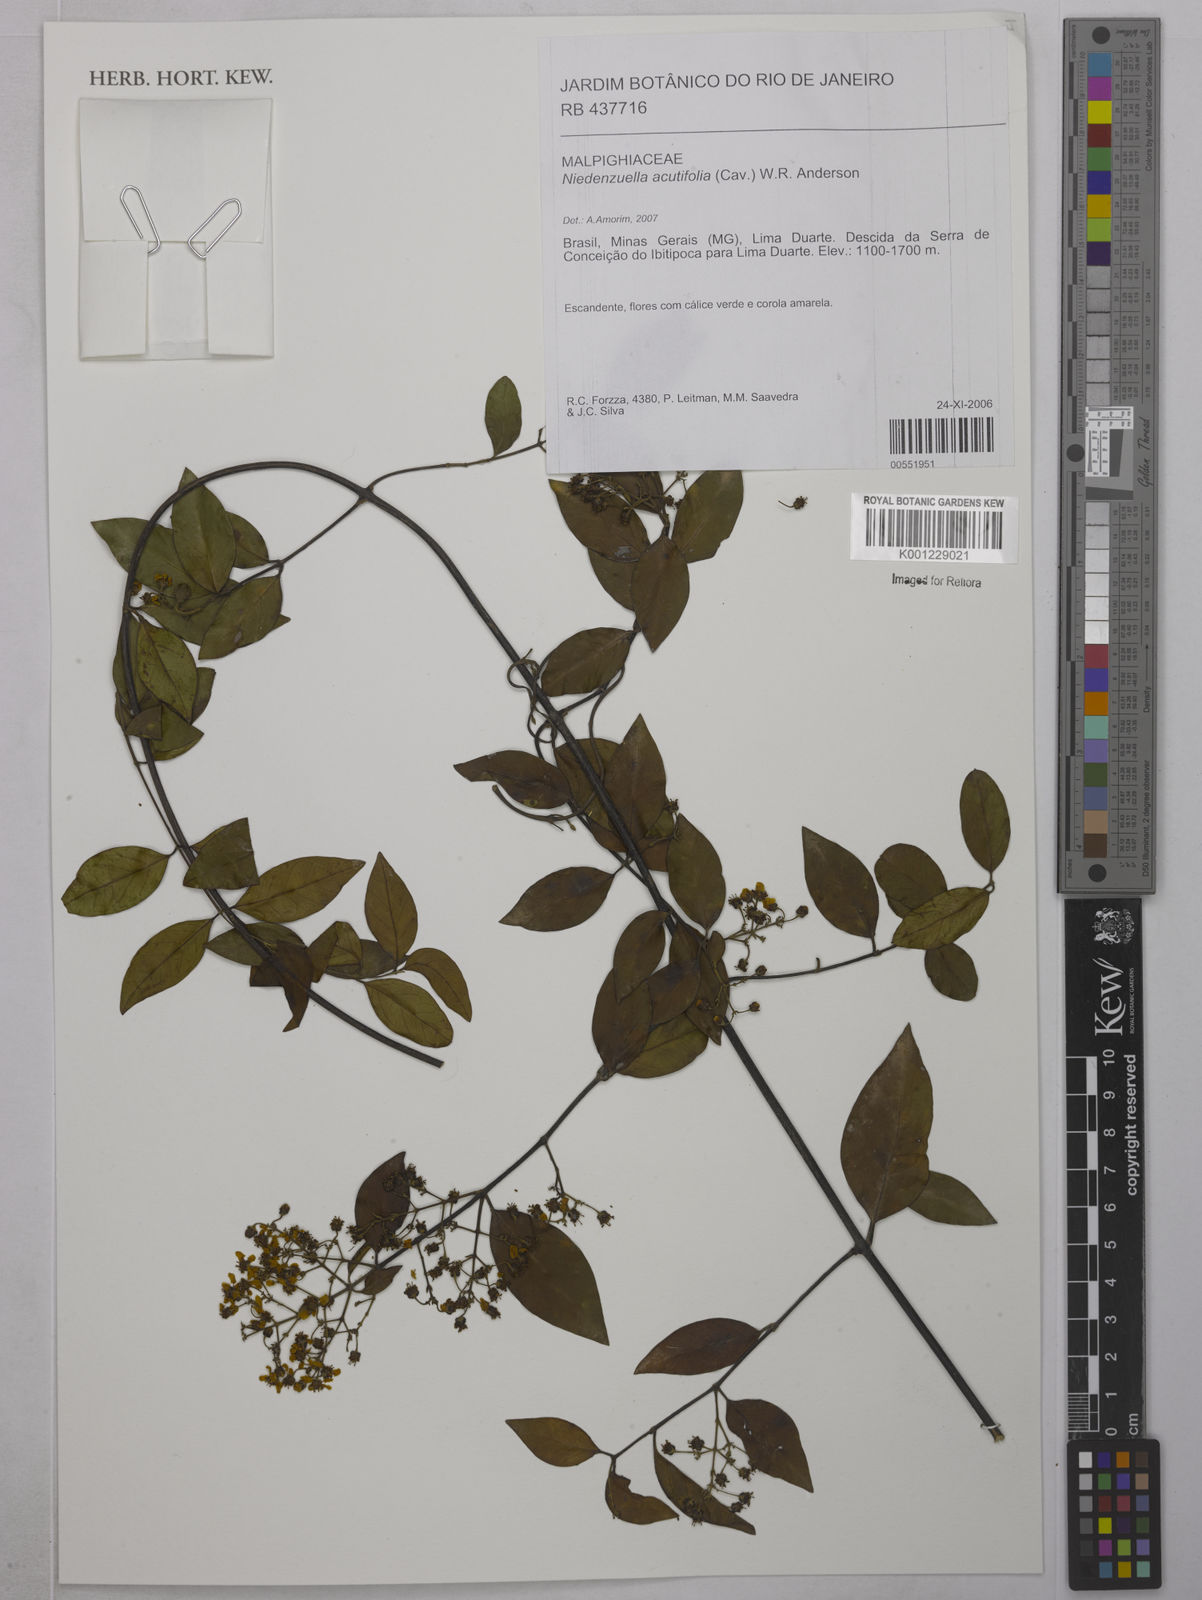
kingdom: Plantae
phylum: Tracheophyta
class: Magnoliopsida
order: Malpighiales
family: Malpighiaceae
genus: Niedenzuella
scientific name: Niedenzuella acutifolia
